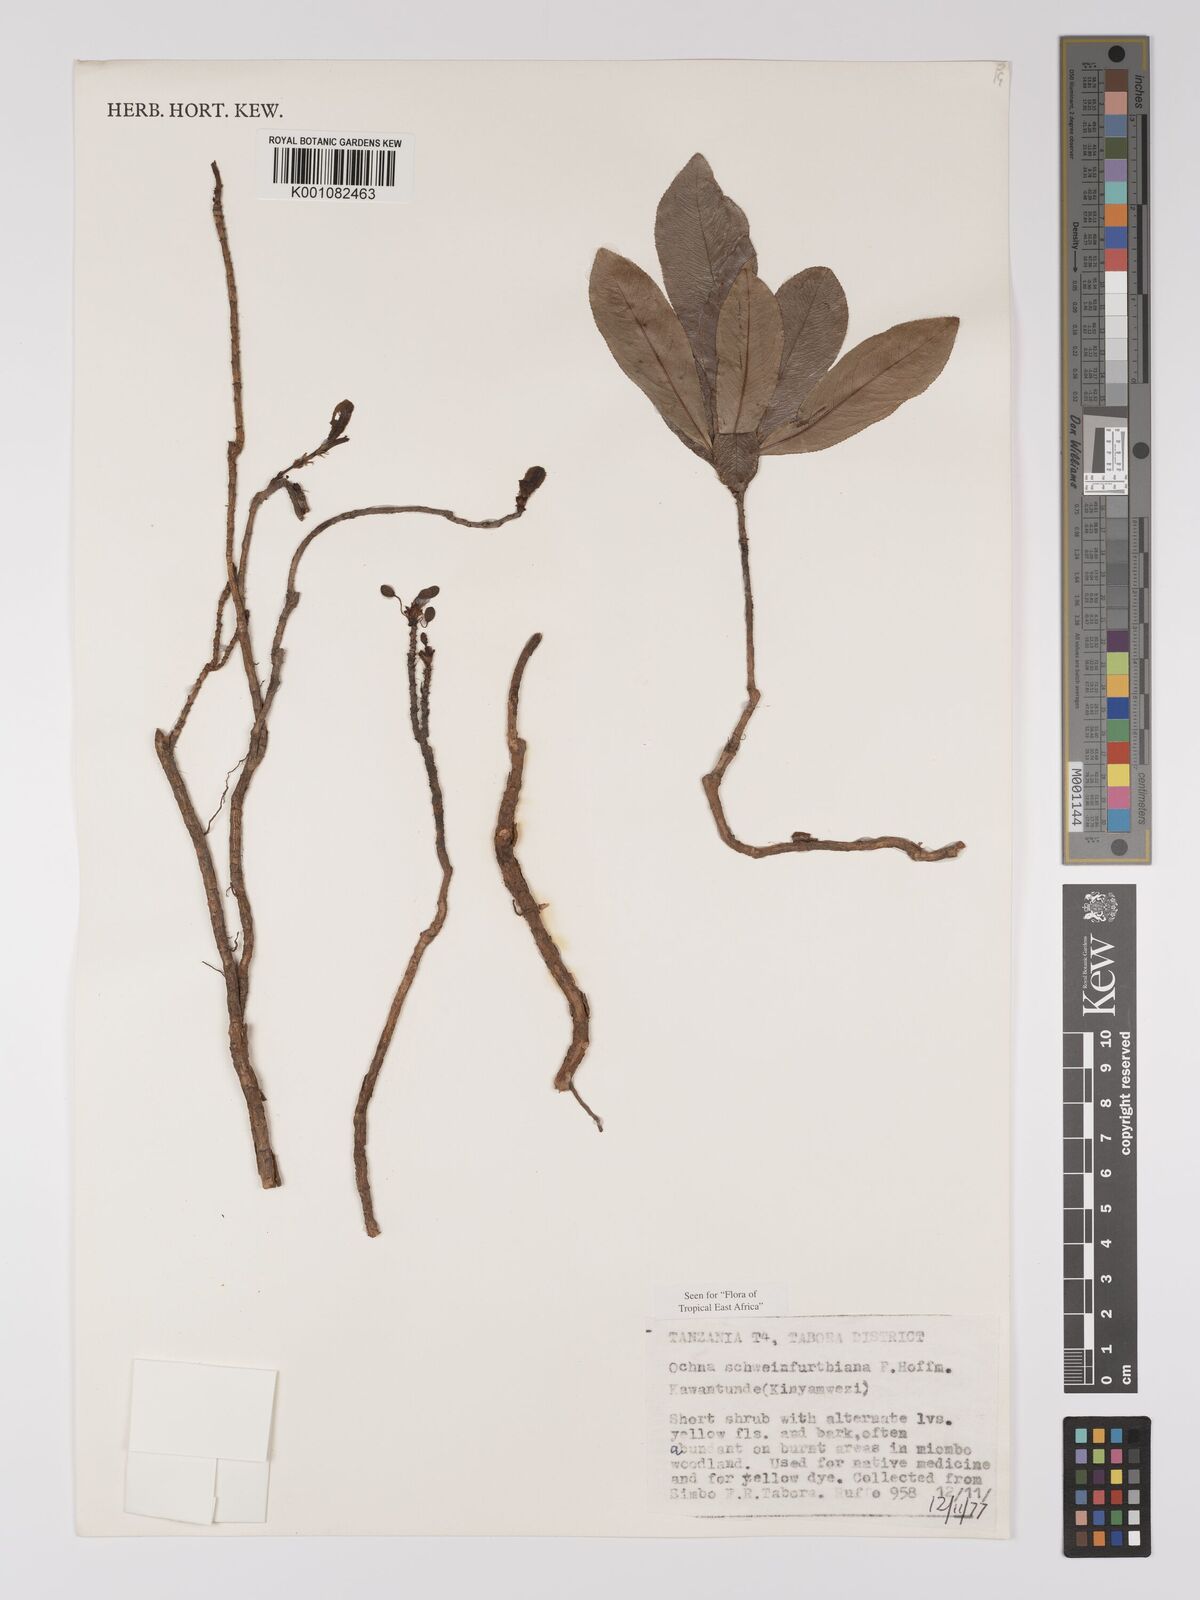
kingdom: Plantae
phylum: Tracheophyta
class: Magnoliopsida
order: Malpighiales
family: Ochnaceae
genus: Ochna
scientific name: Ochna schweinfurthiana
